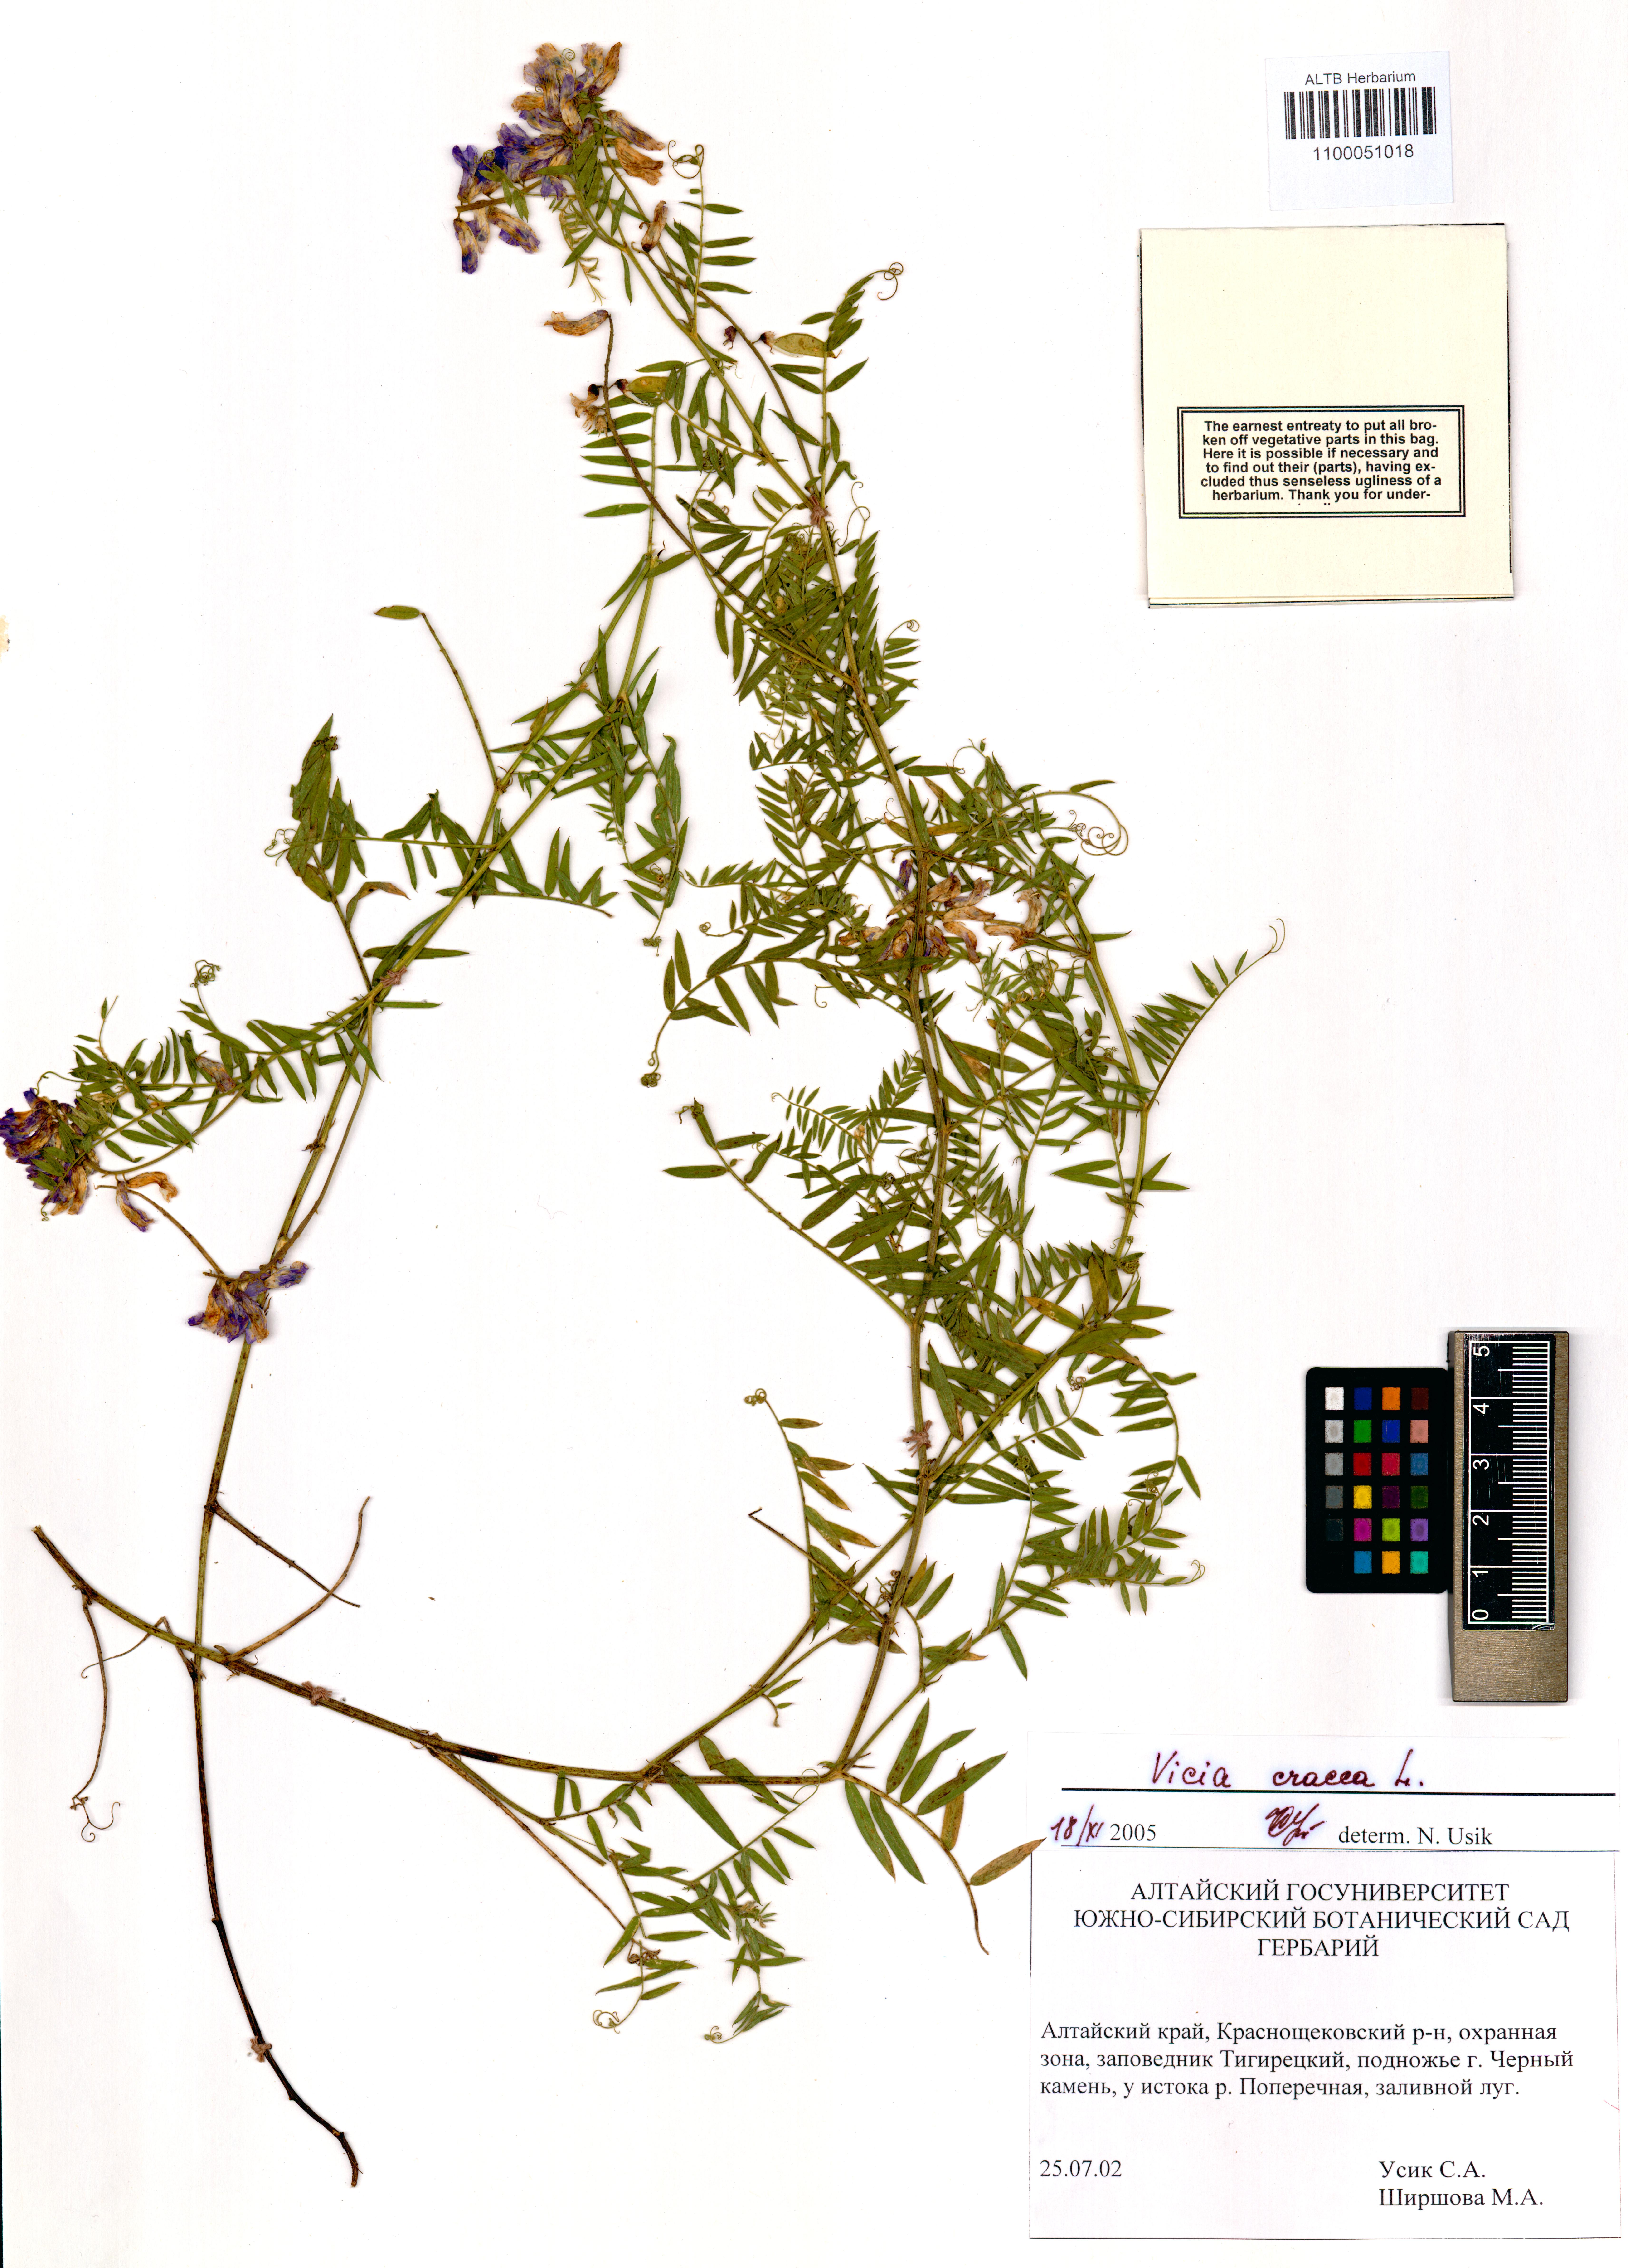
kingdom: Plantae
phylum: Tracheophyta
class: Magnoliopsida
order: Fabales
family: Fabaceae
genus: Vicia
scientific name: Vicia cracca
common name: Bird vetch
